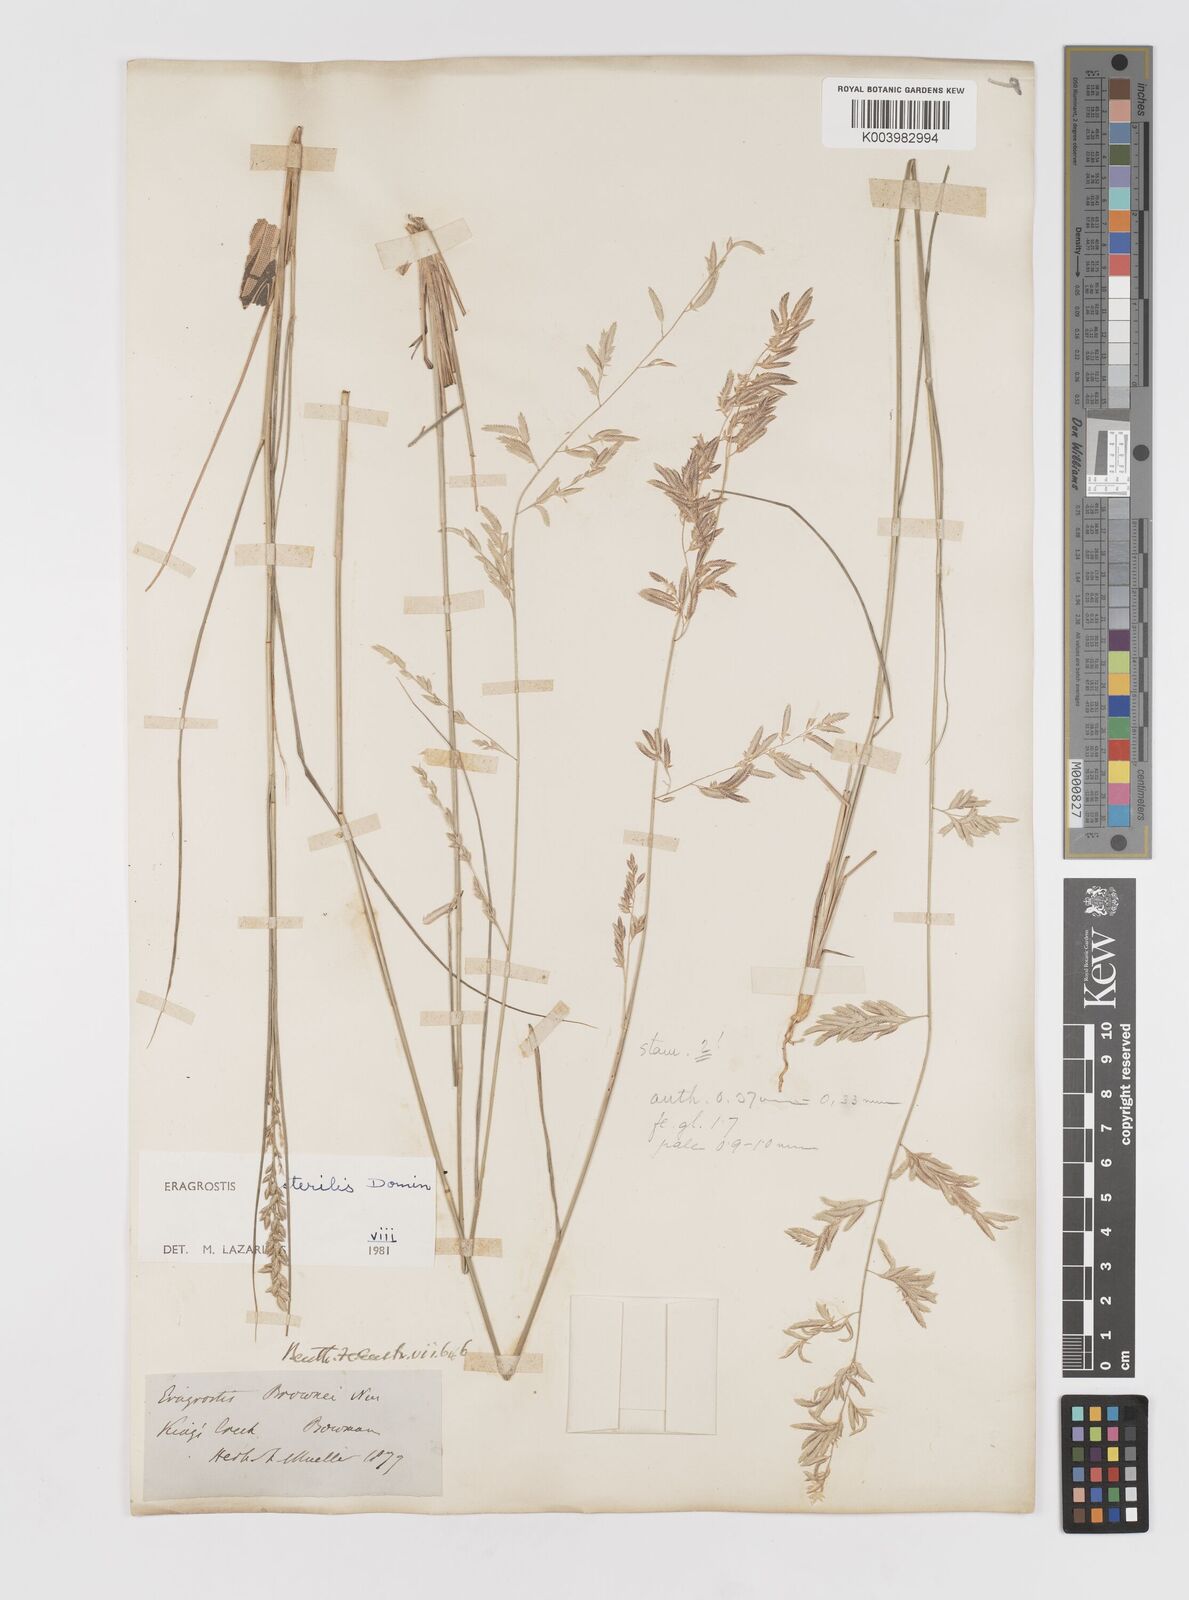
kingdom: Plantae
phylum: Tracheophyta
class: Liliopsida
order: Poales
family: Poaceae
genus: Eragrostis
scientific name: Eragrostis sterilis
